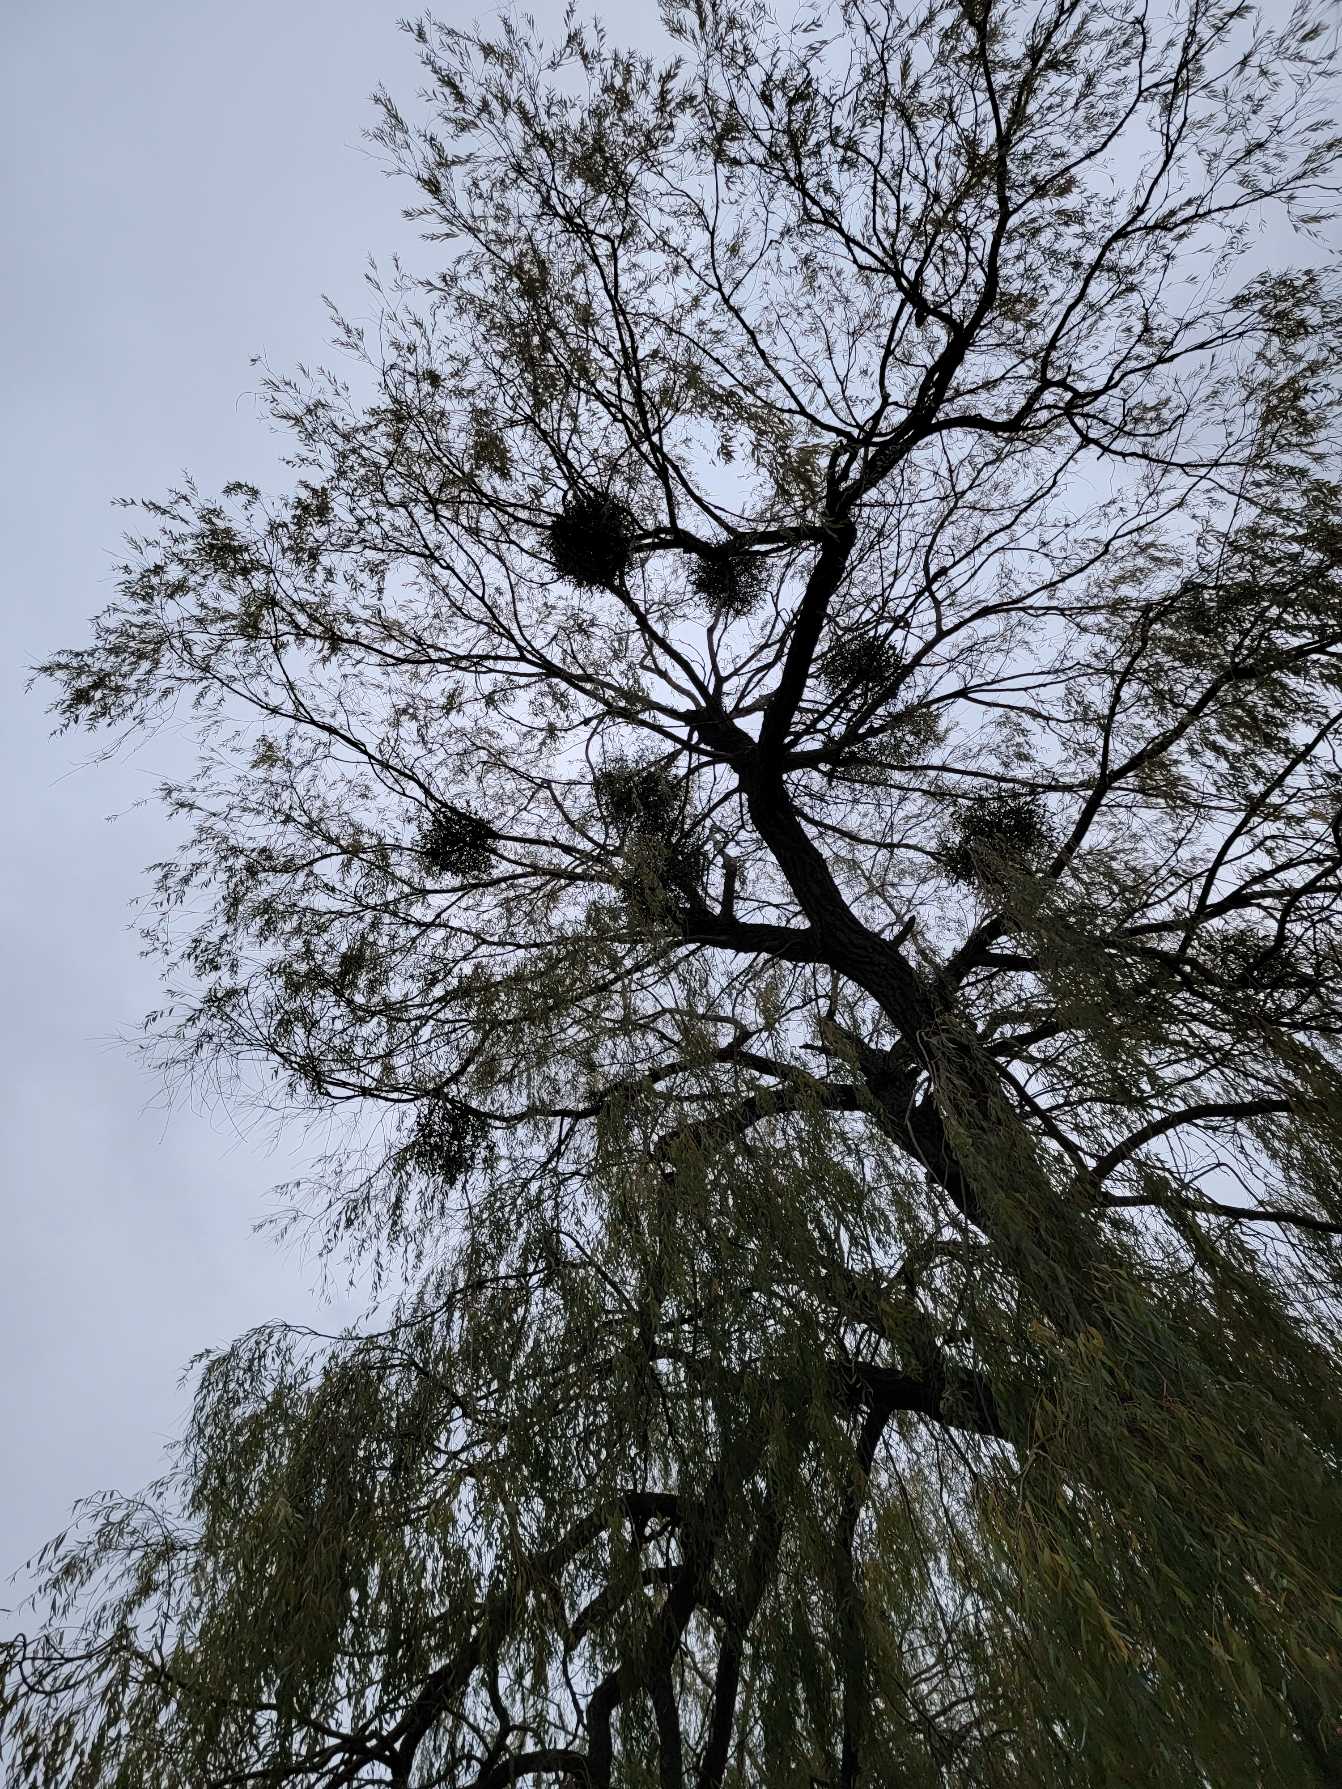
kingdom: Plantae
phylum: Tracheophyta
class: Magnoliopsida
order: Santalales
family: Viscaceae
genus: Viscum
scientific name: Viscum album
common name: Mistelten
